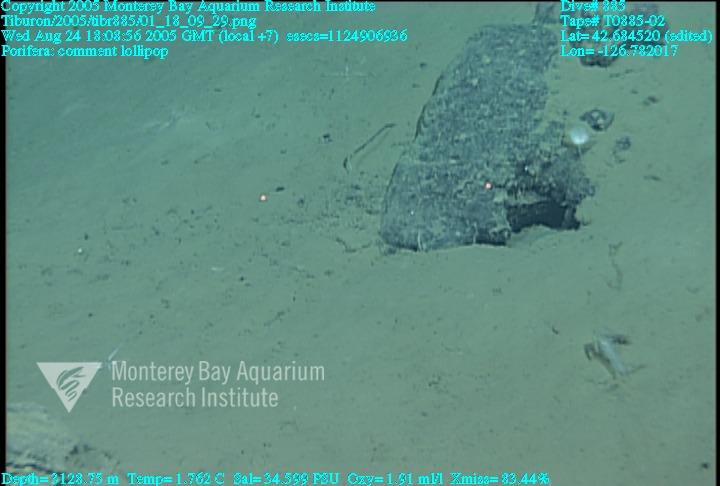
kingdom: Animalia
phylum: Porifera
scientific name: Porifera
